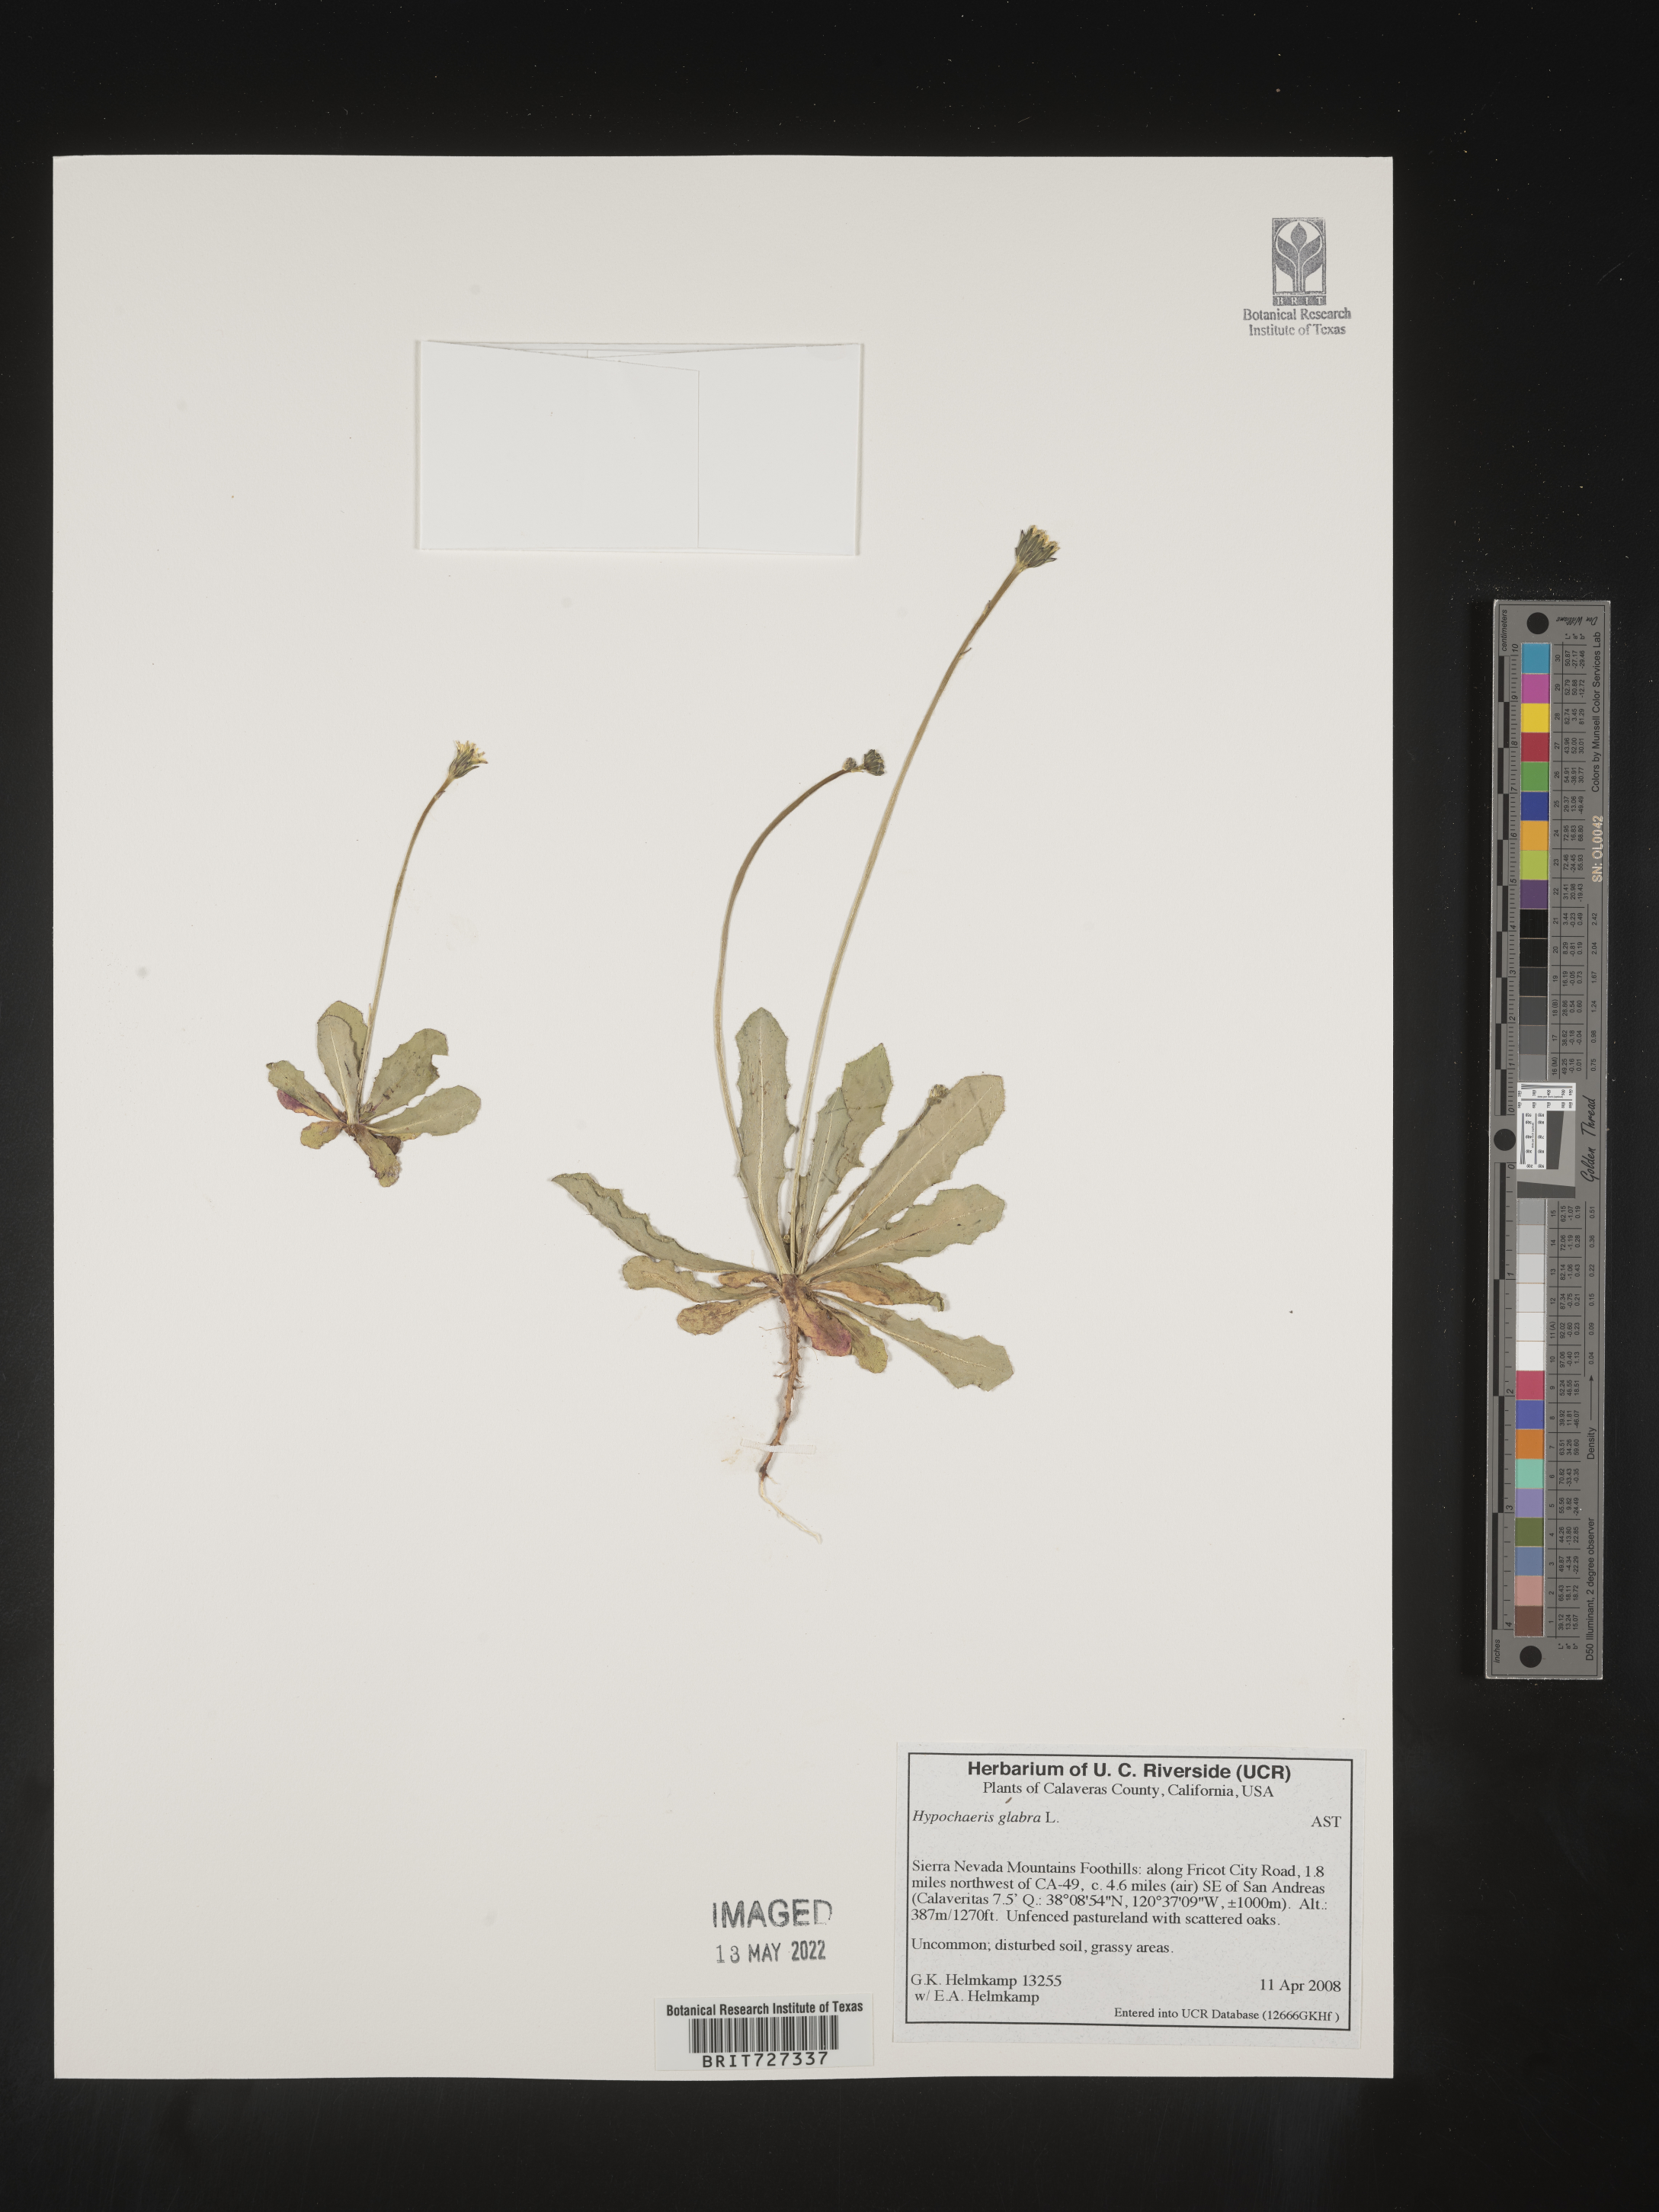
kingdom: Plantae
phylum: Tracheophyta
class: Magnoliopsida
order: Asterales
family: Asteraceae
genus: Hypochaeris
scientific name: Hypochaeris glabra
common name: Smooth catsear
